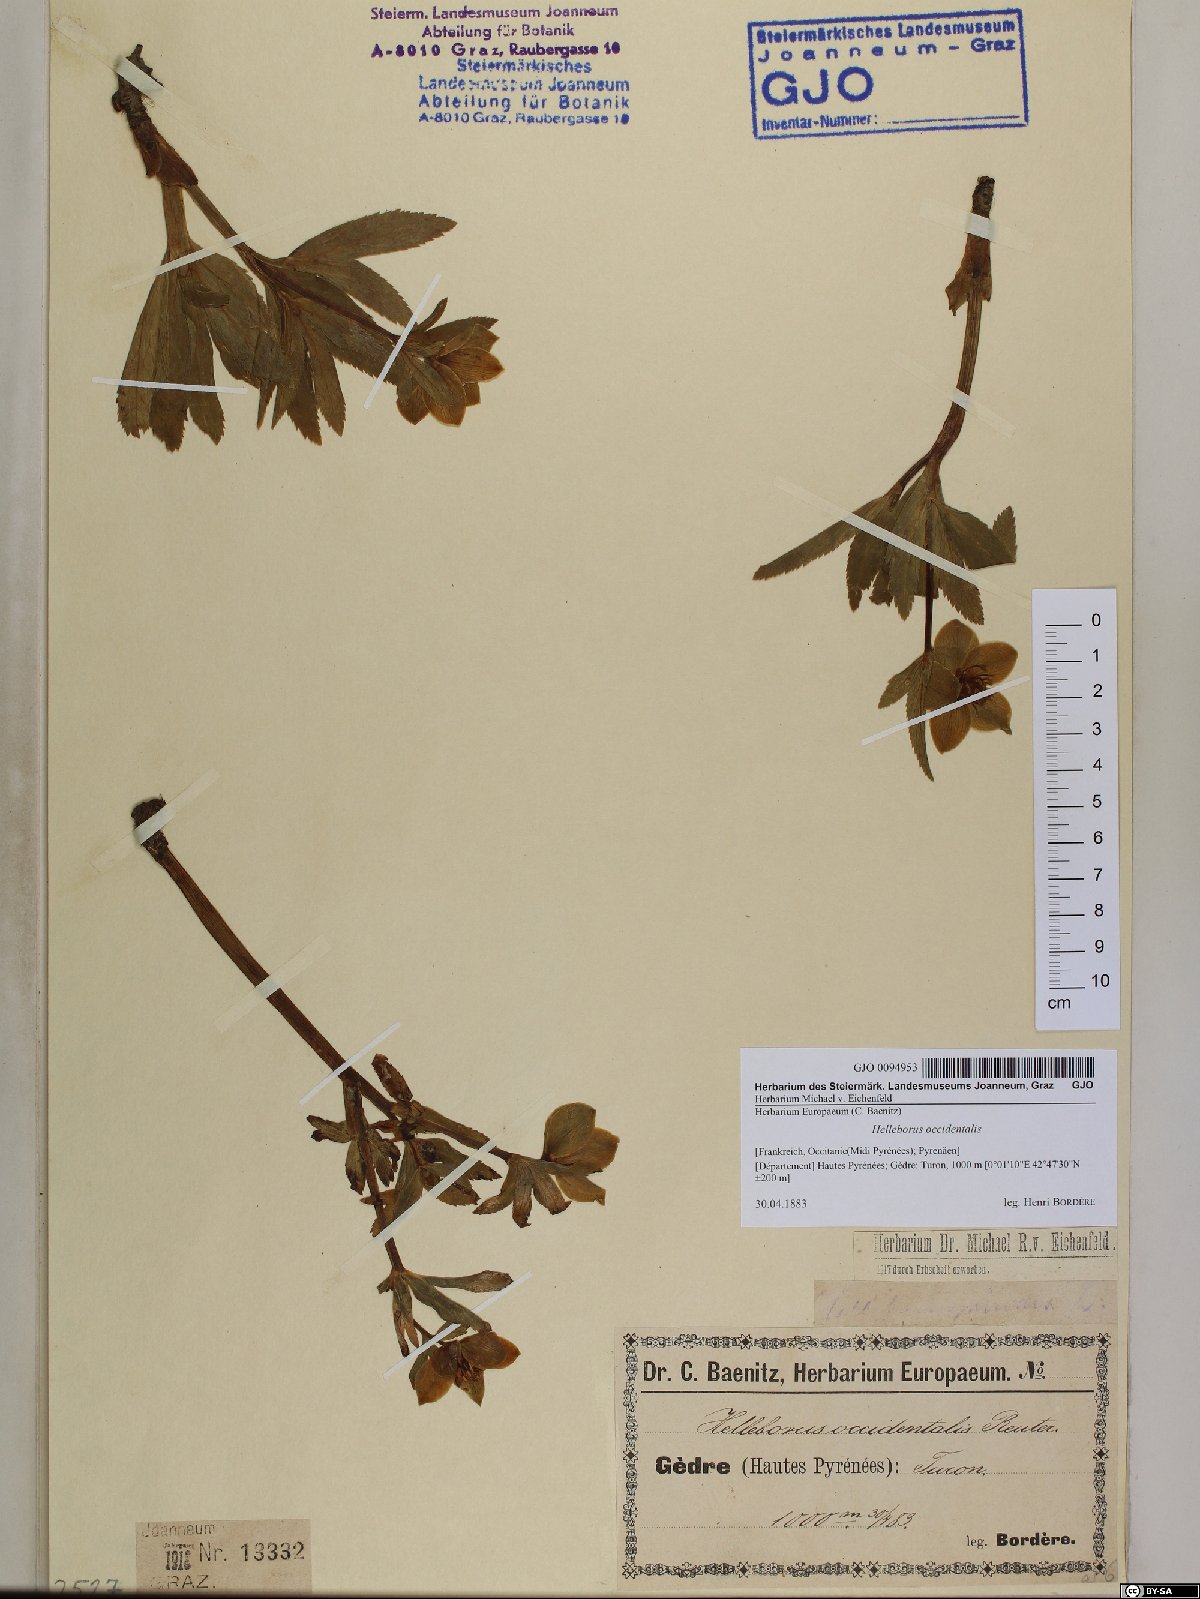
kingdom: Plantae
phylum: Tracheophyta
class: Magnoliopsida
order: Ranunculales
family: Ranunculaceae
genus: Helleborus
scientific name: Helleborus viridis
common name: Green hellebore
